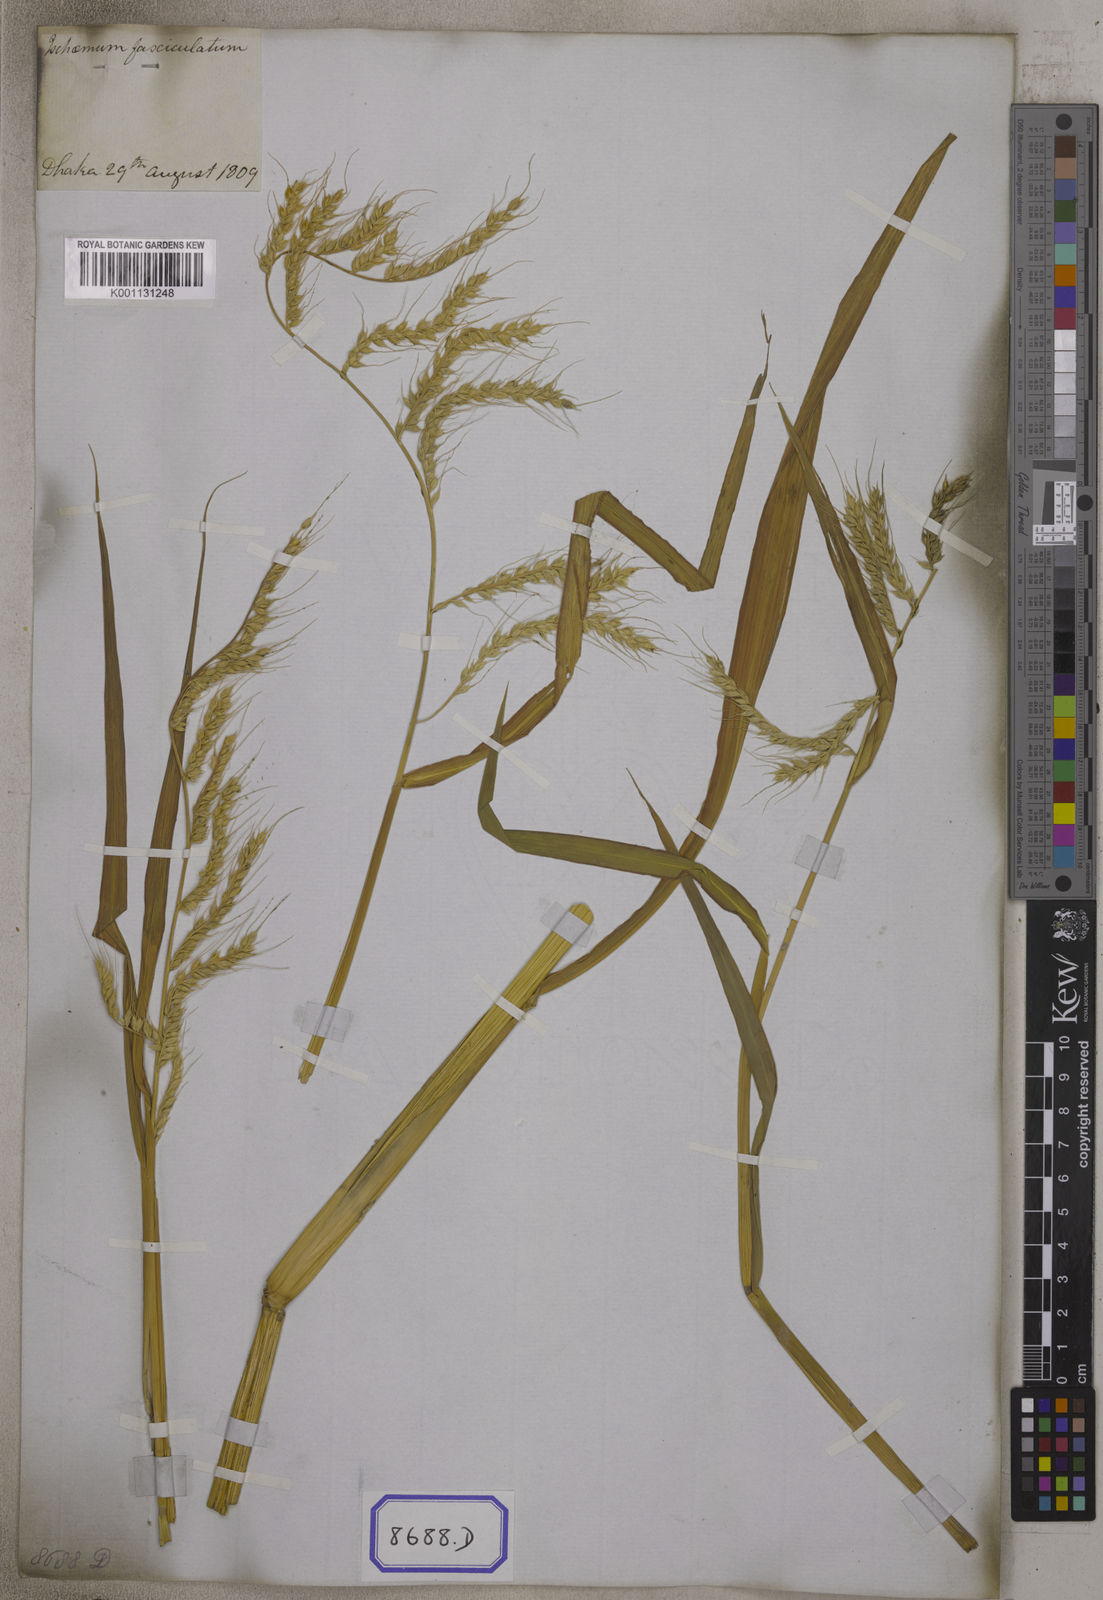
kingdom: Plantae
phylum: Tracheophyta
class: Liliopsida
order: Poales
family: Poaceae
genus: Echinochloa
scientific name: Echinochloa stagnina
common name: Burgu grass
